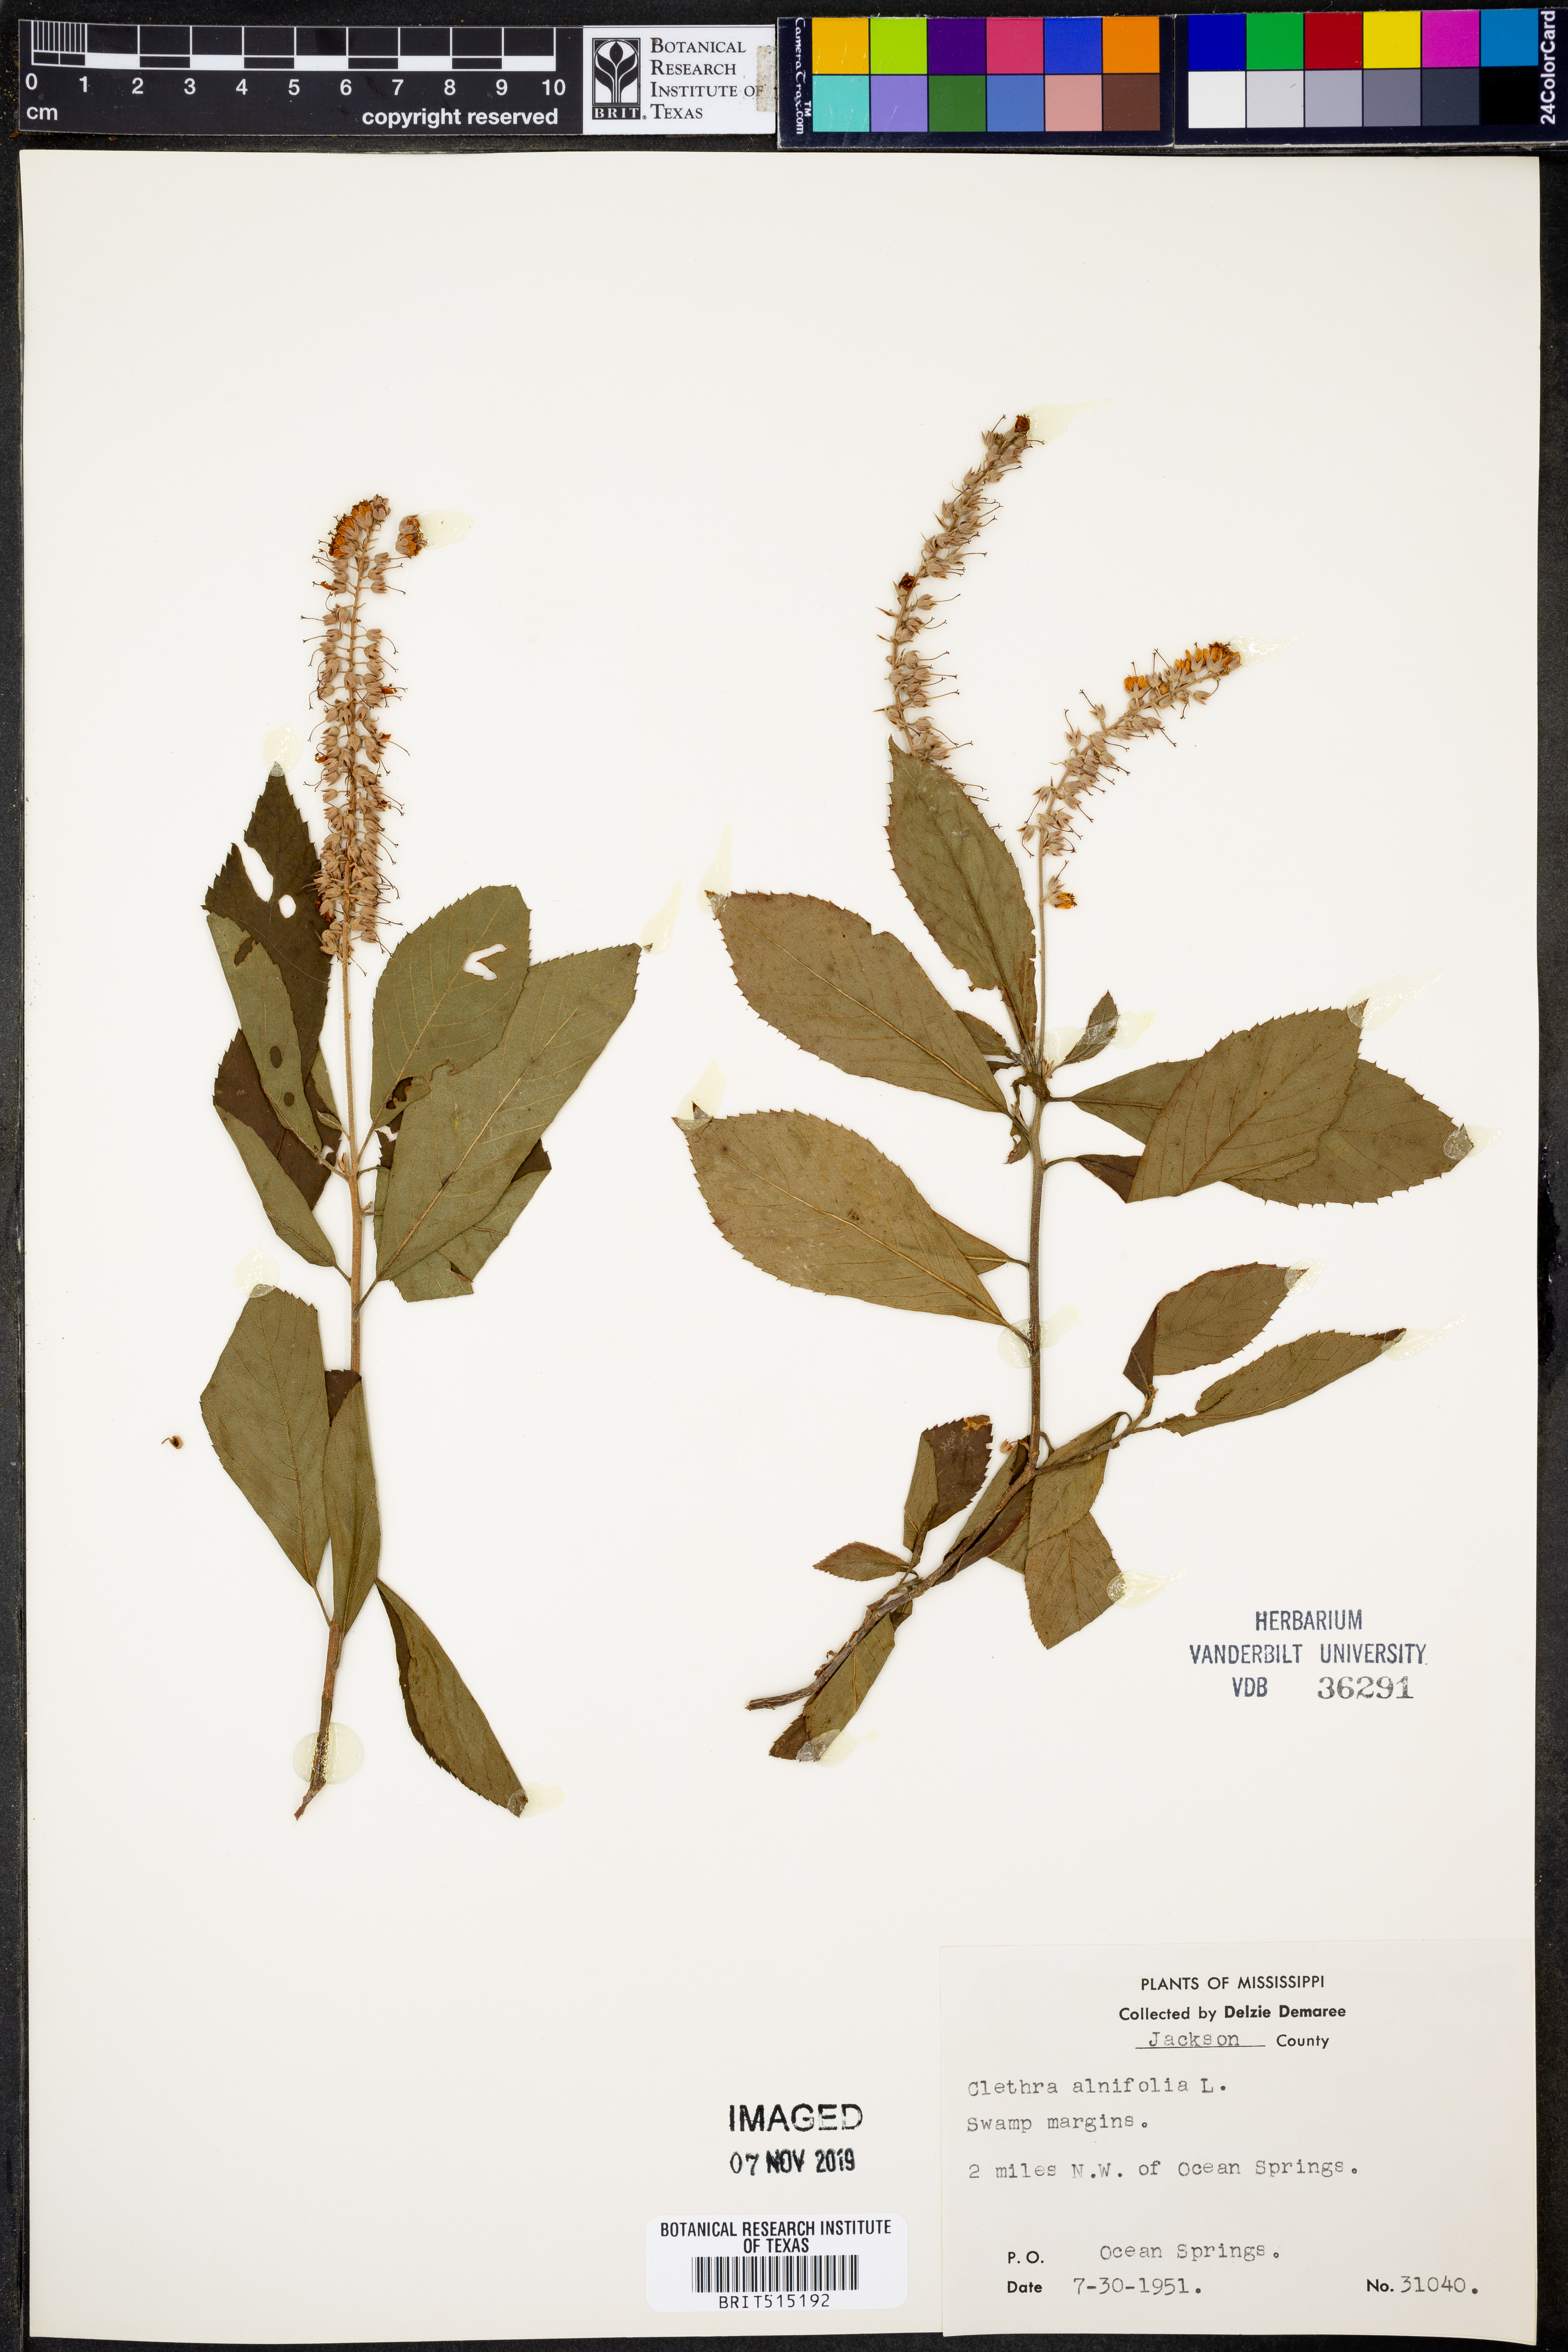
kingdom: Plantae
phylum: Tracheophyta
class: Magnoliopsida
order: Ericales
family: Clethraceae
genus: Clethra
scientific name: Clethra alnifolia
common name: Sweet pepperbush
